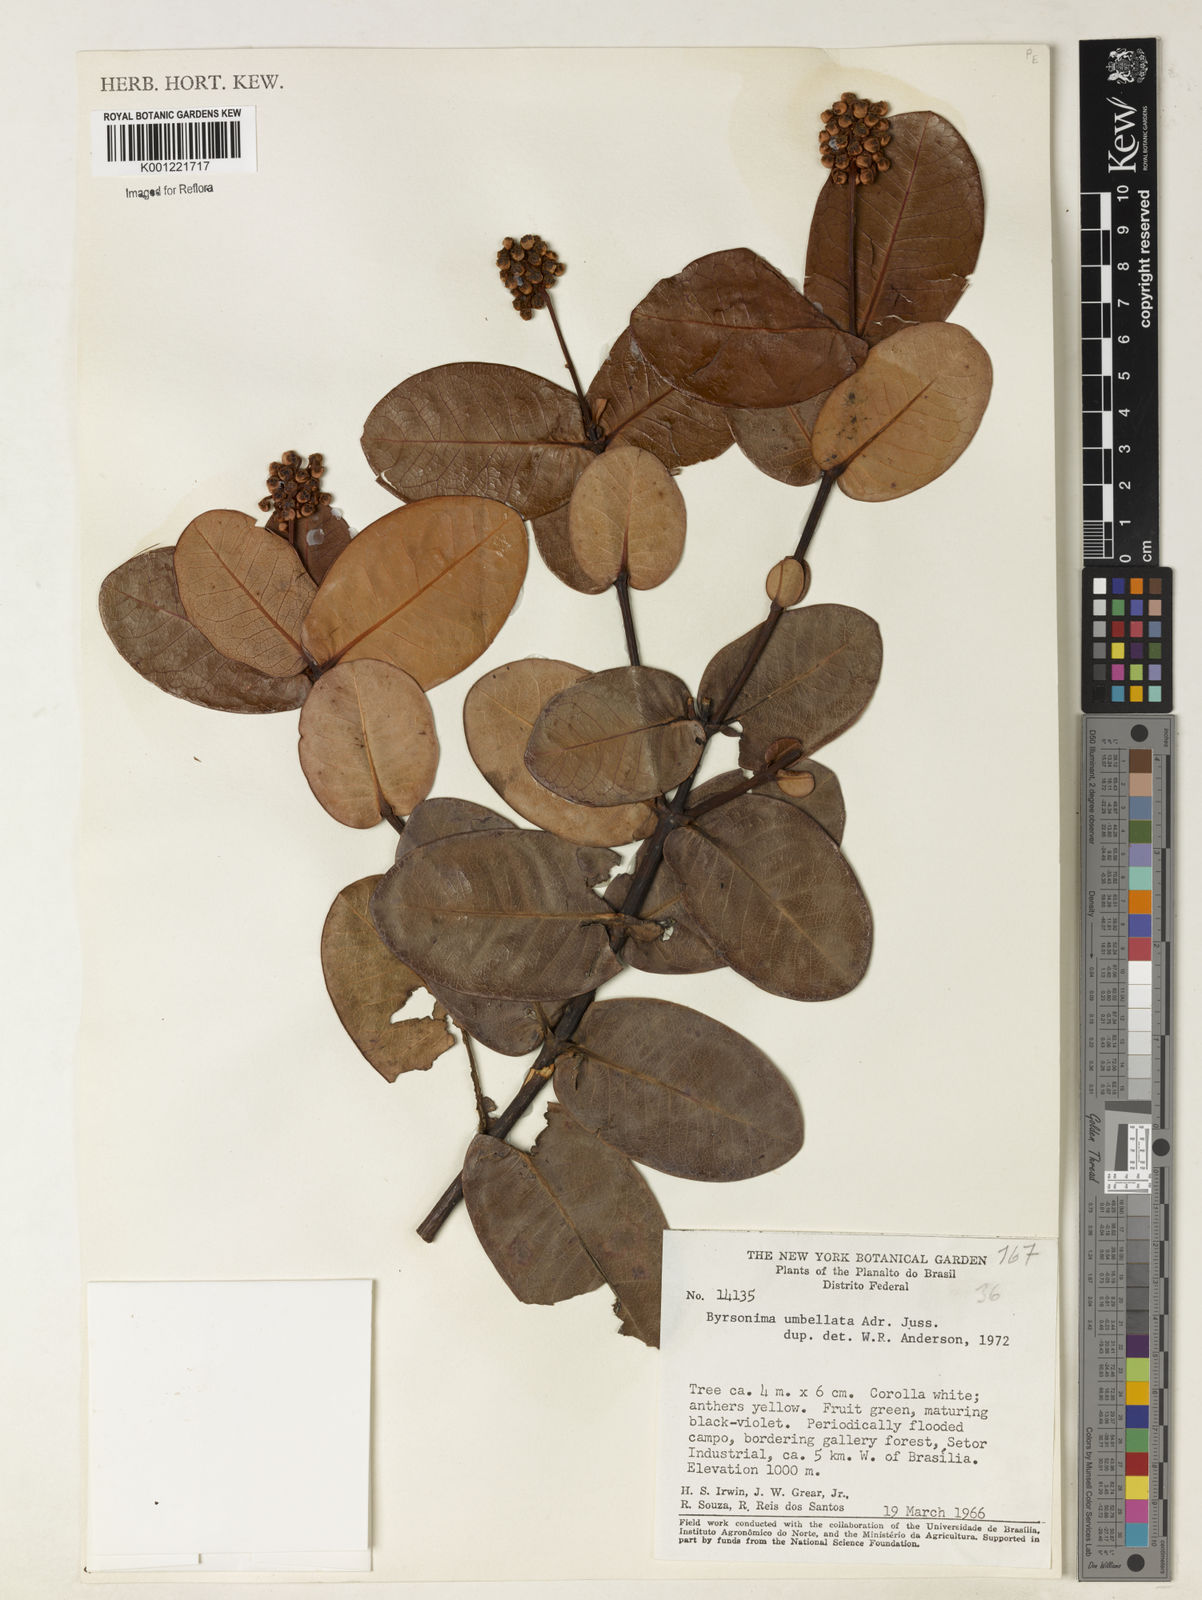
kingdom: Plantae
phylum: Tracheophyta
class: Magnoliopsida
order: Malpighiales
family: Malpighiaceae
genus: Byrsonima
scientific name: Byrsonima umbellata
